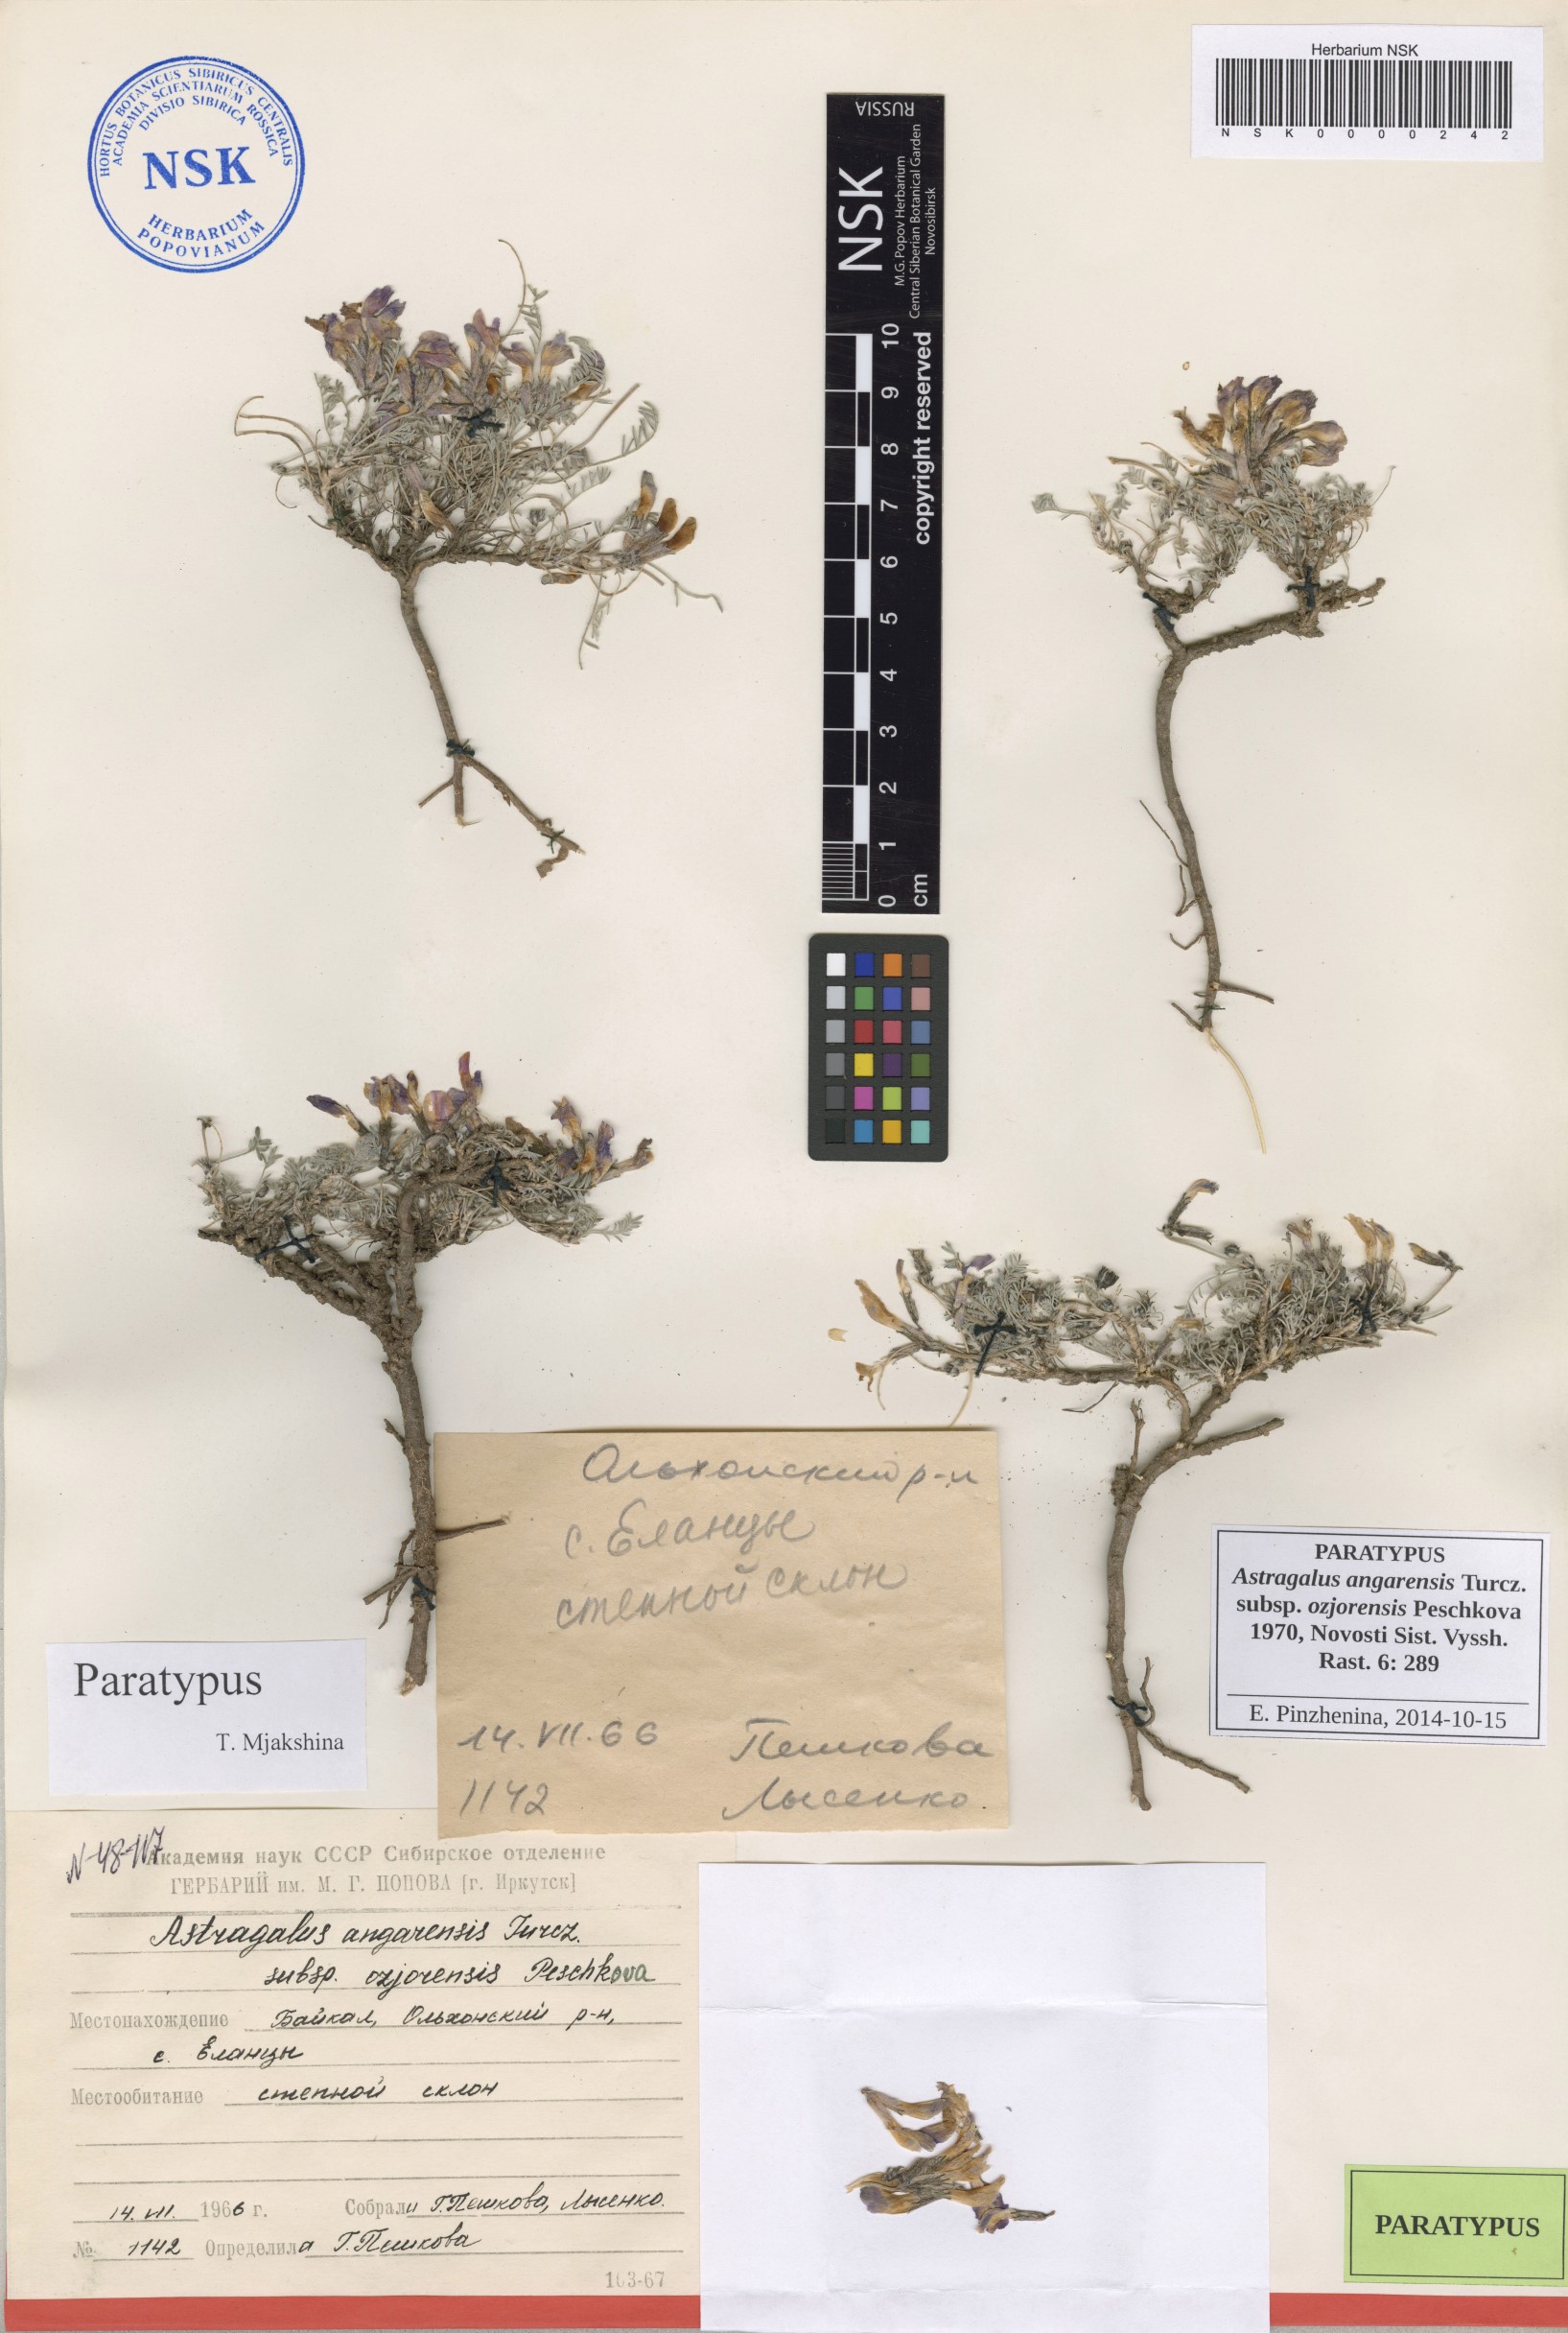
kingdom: Plantae
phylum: Tracheophyta
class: Magnoliopsida
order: Fabales
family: Fabaceae
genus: Astragalus
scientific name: Astragalus angarensis
